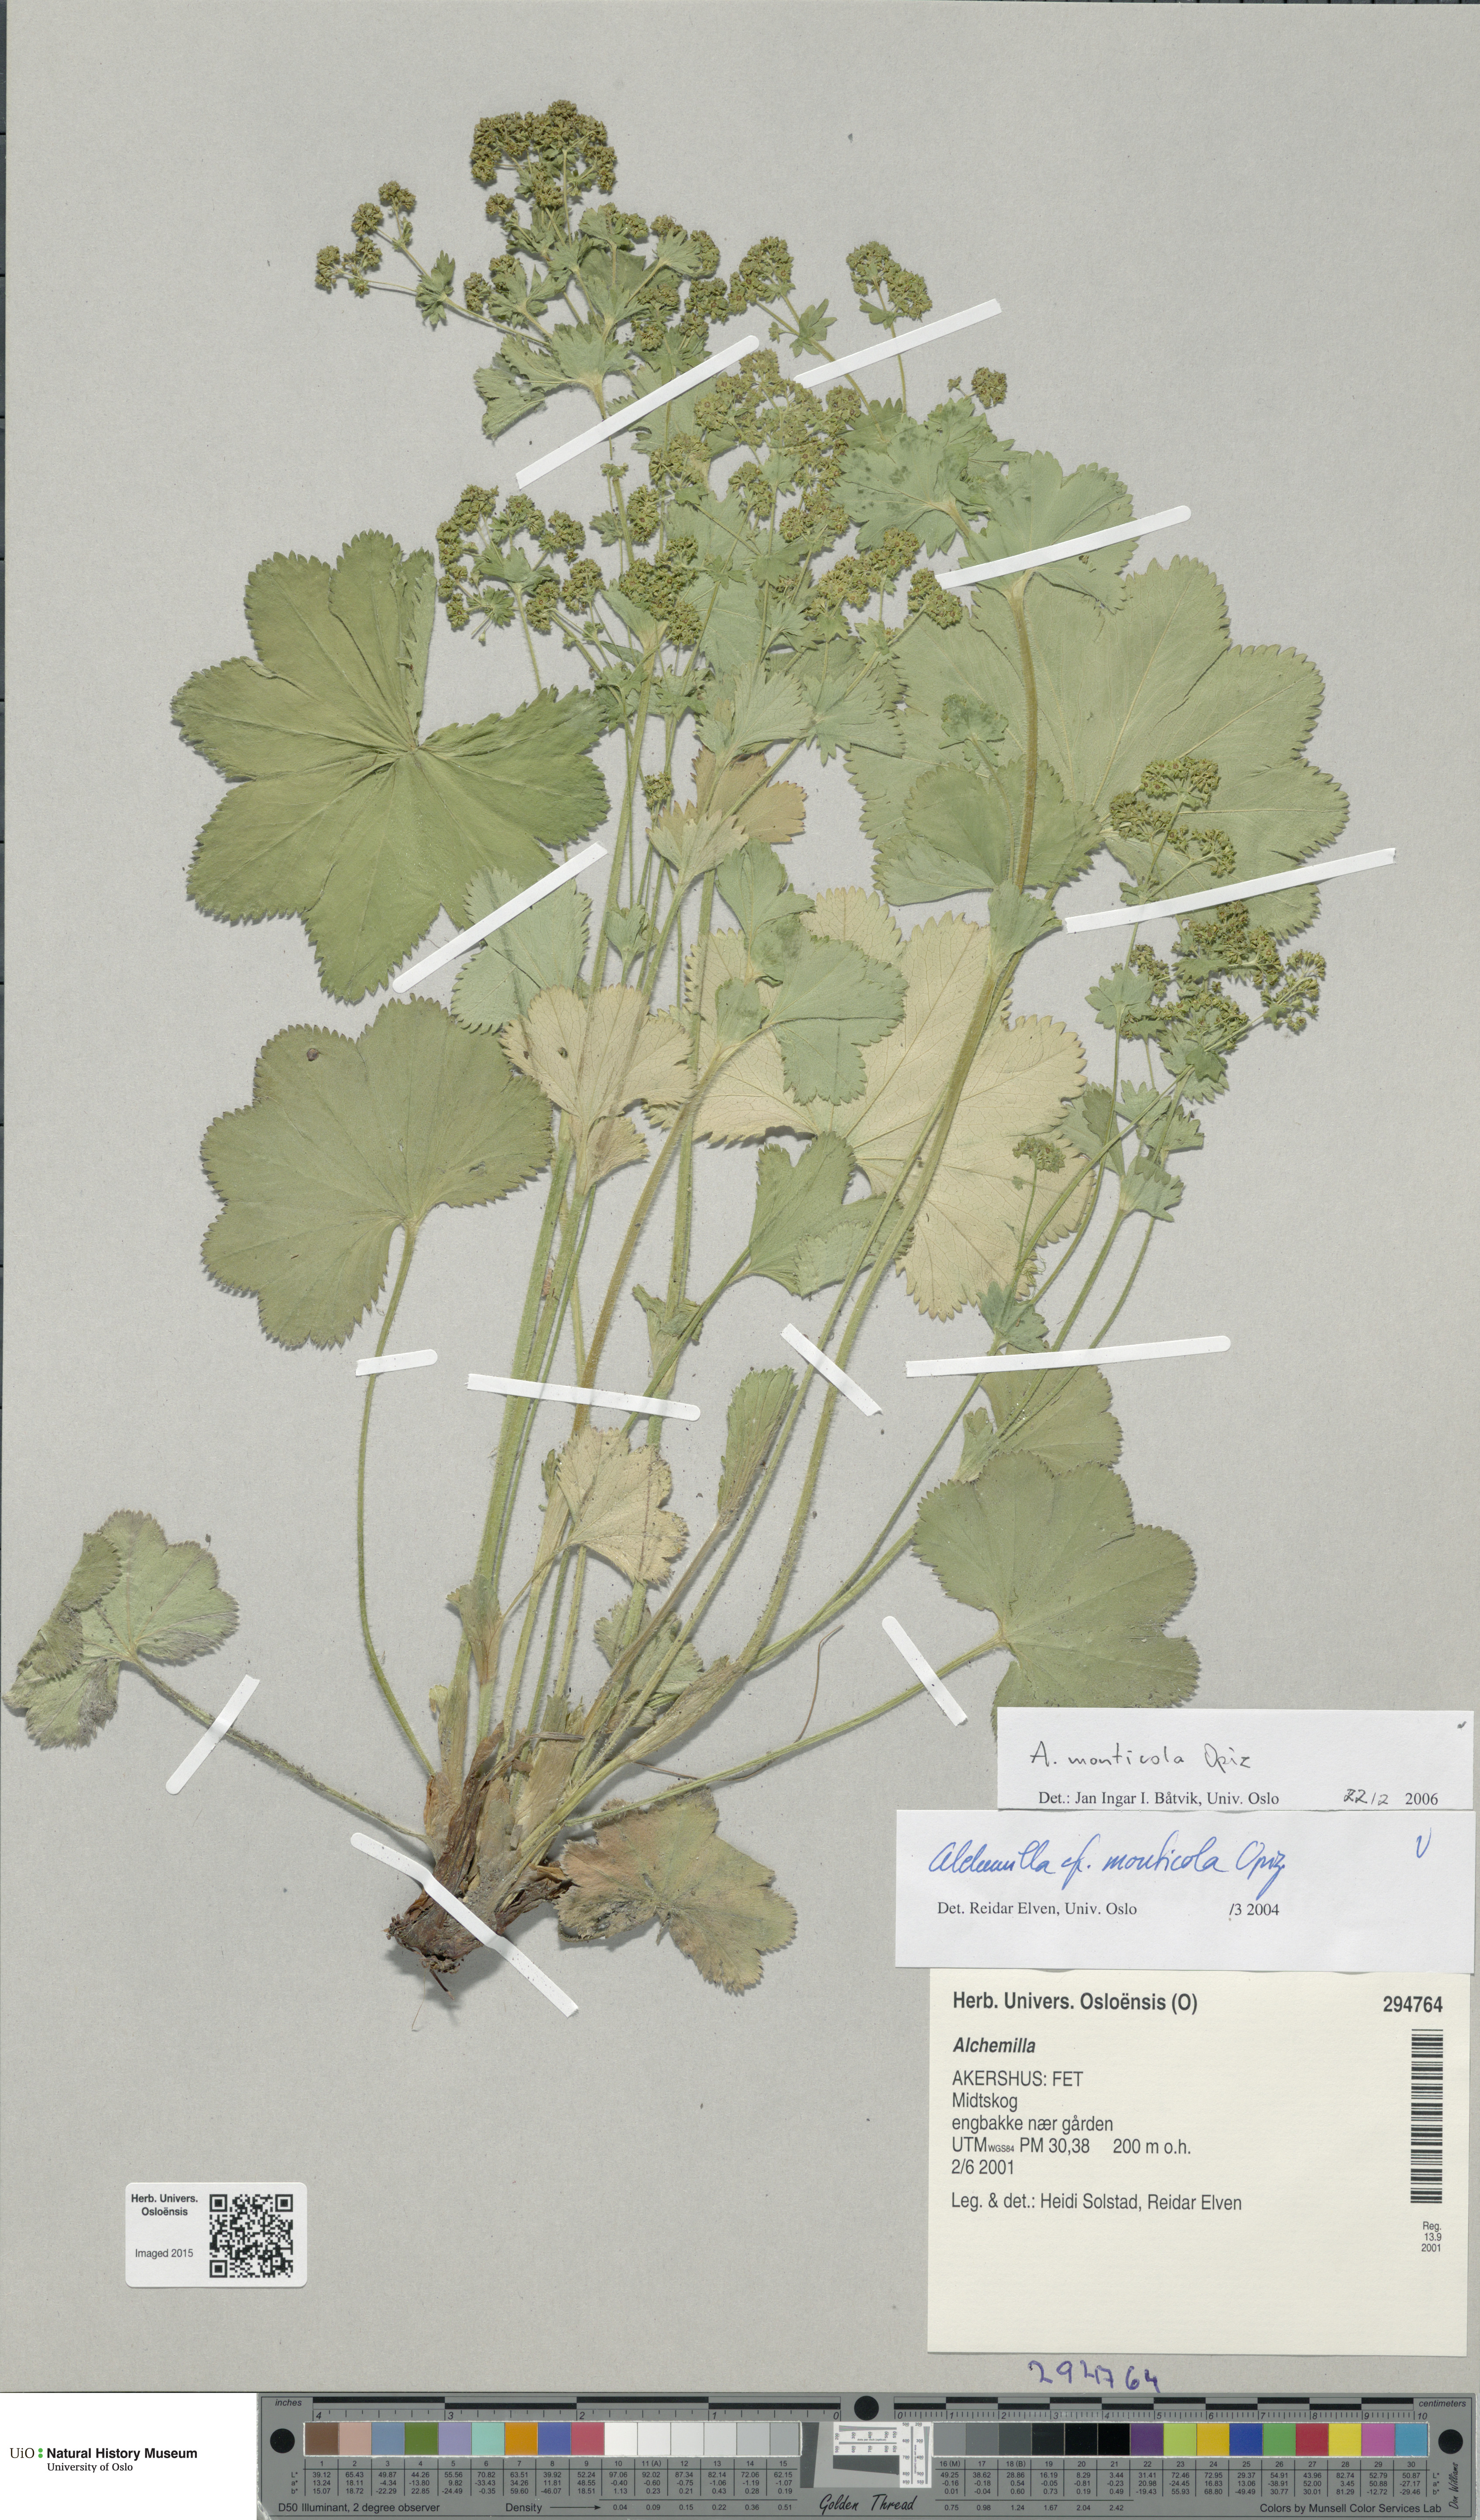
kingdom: Plantae
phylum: Tracheophyta
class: Magnoliopsida
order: Rosales
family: Rosaceae
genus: Alchemilla
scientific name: Alchemilla monticola
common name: Hairy lady's mantle
